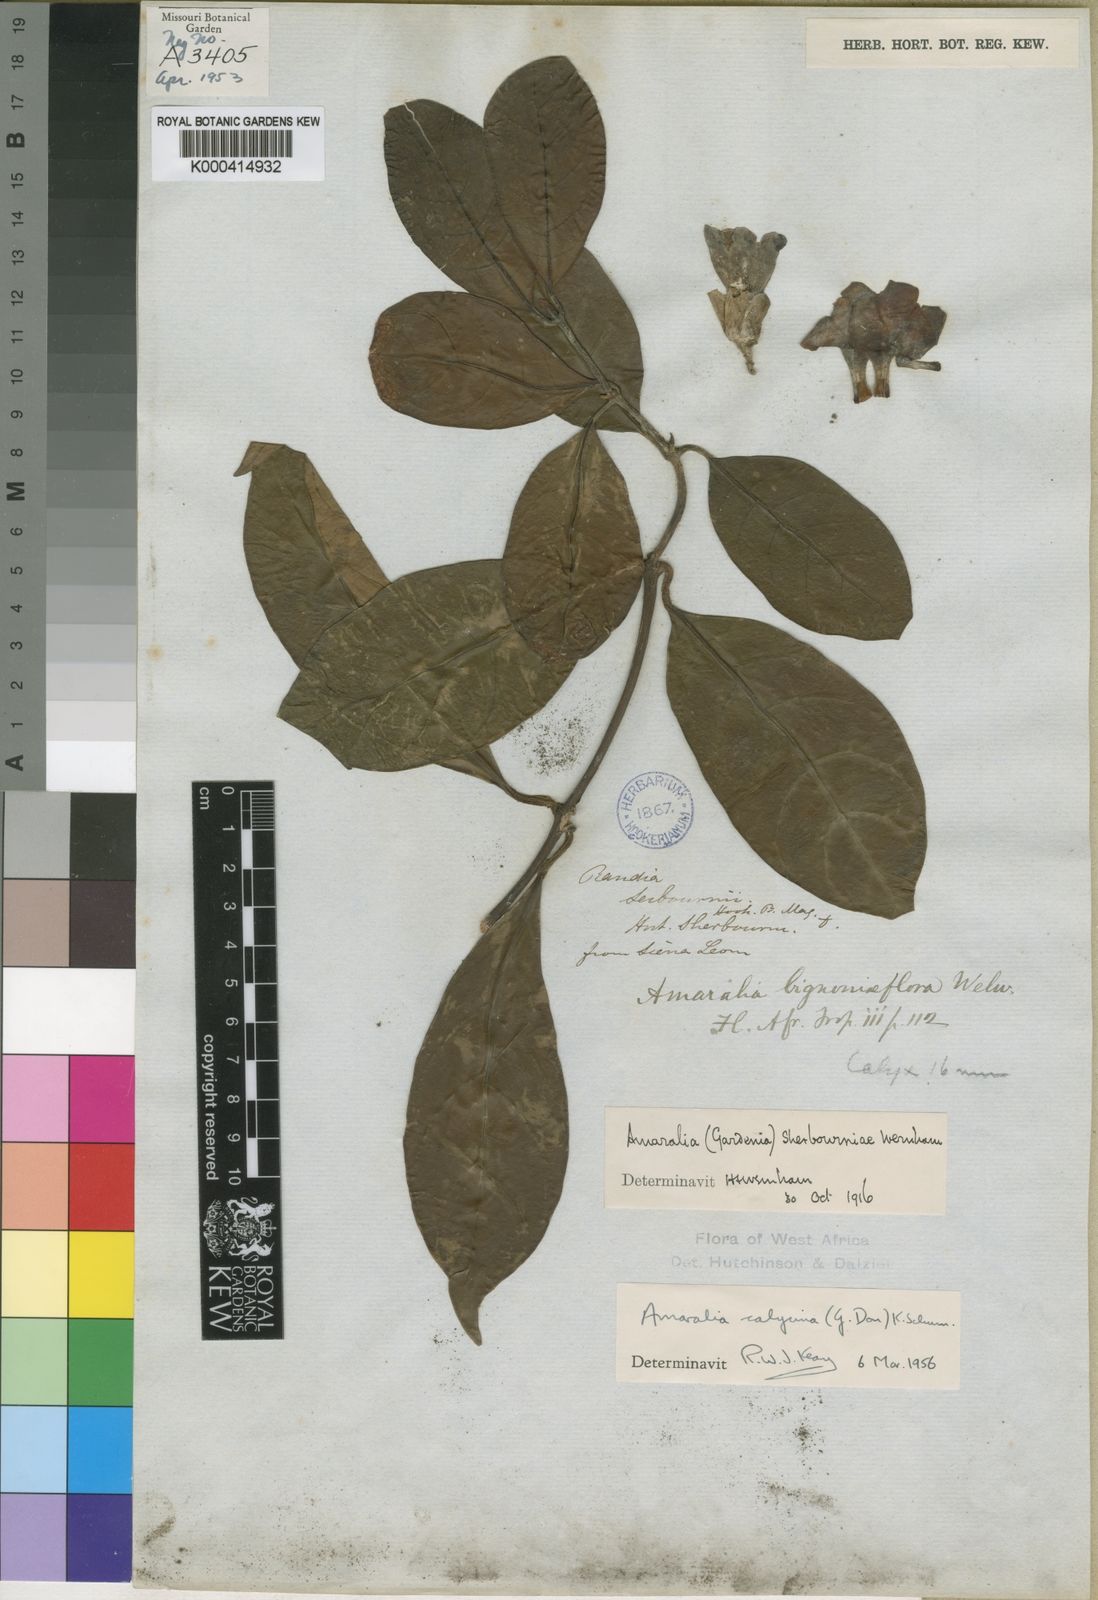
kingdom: Plantae
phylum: Tracheophyta
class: Magnoliopsida
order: Gentianales
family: Rubiaceae
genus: Sherbournia
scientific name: Sherbournia calycina
